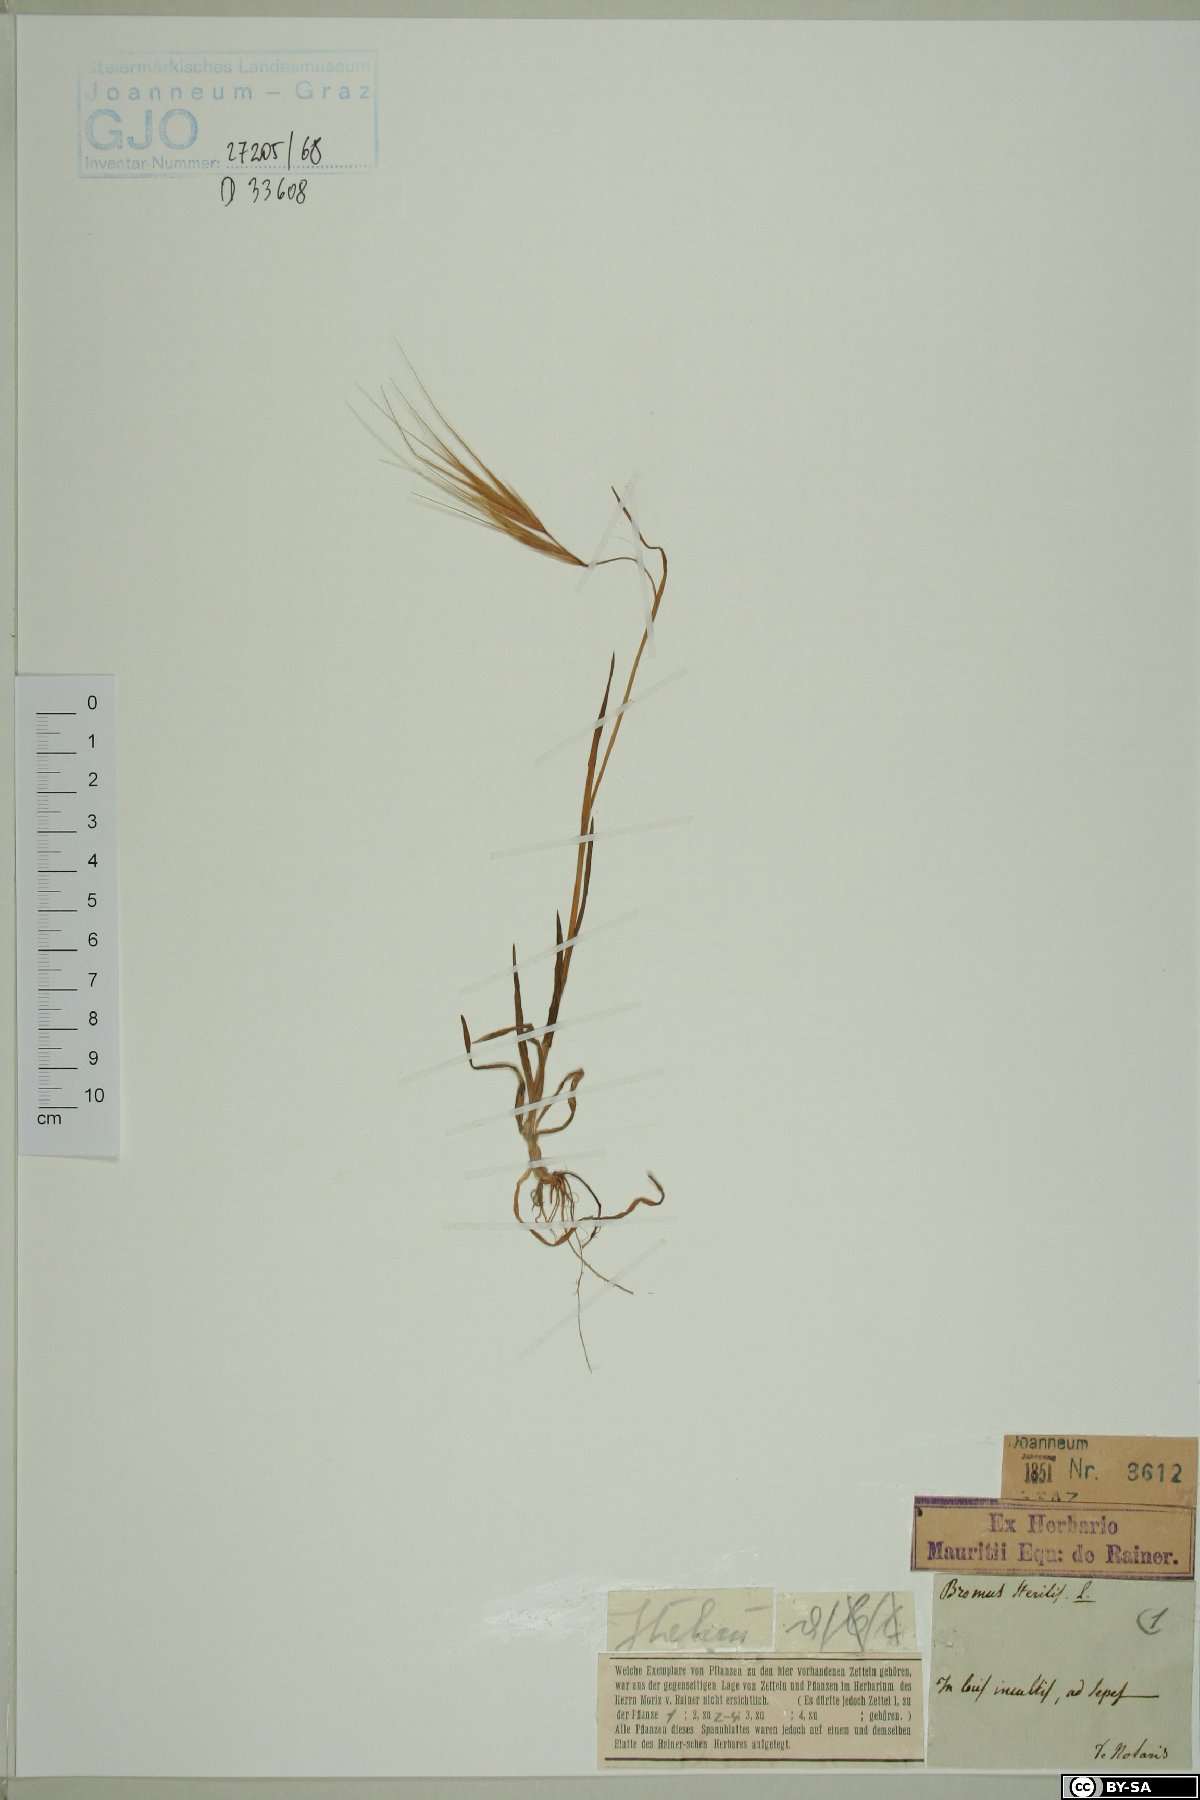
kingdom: Plantae
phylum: Tracheophyta
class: Liliopsida
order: Poales
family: Poaceae
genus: Bromus
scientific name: Bromus sterilis
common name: Poverty brome
